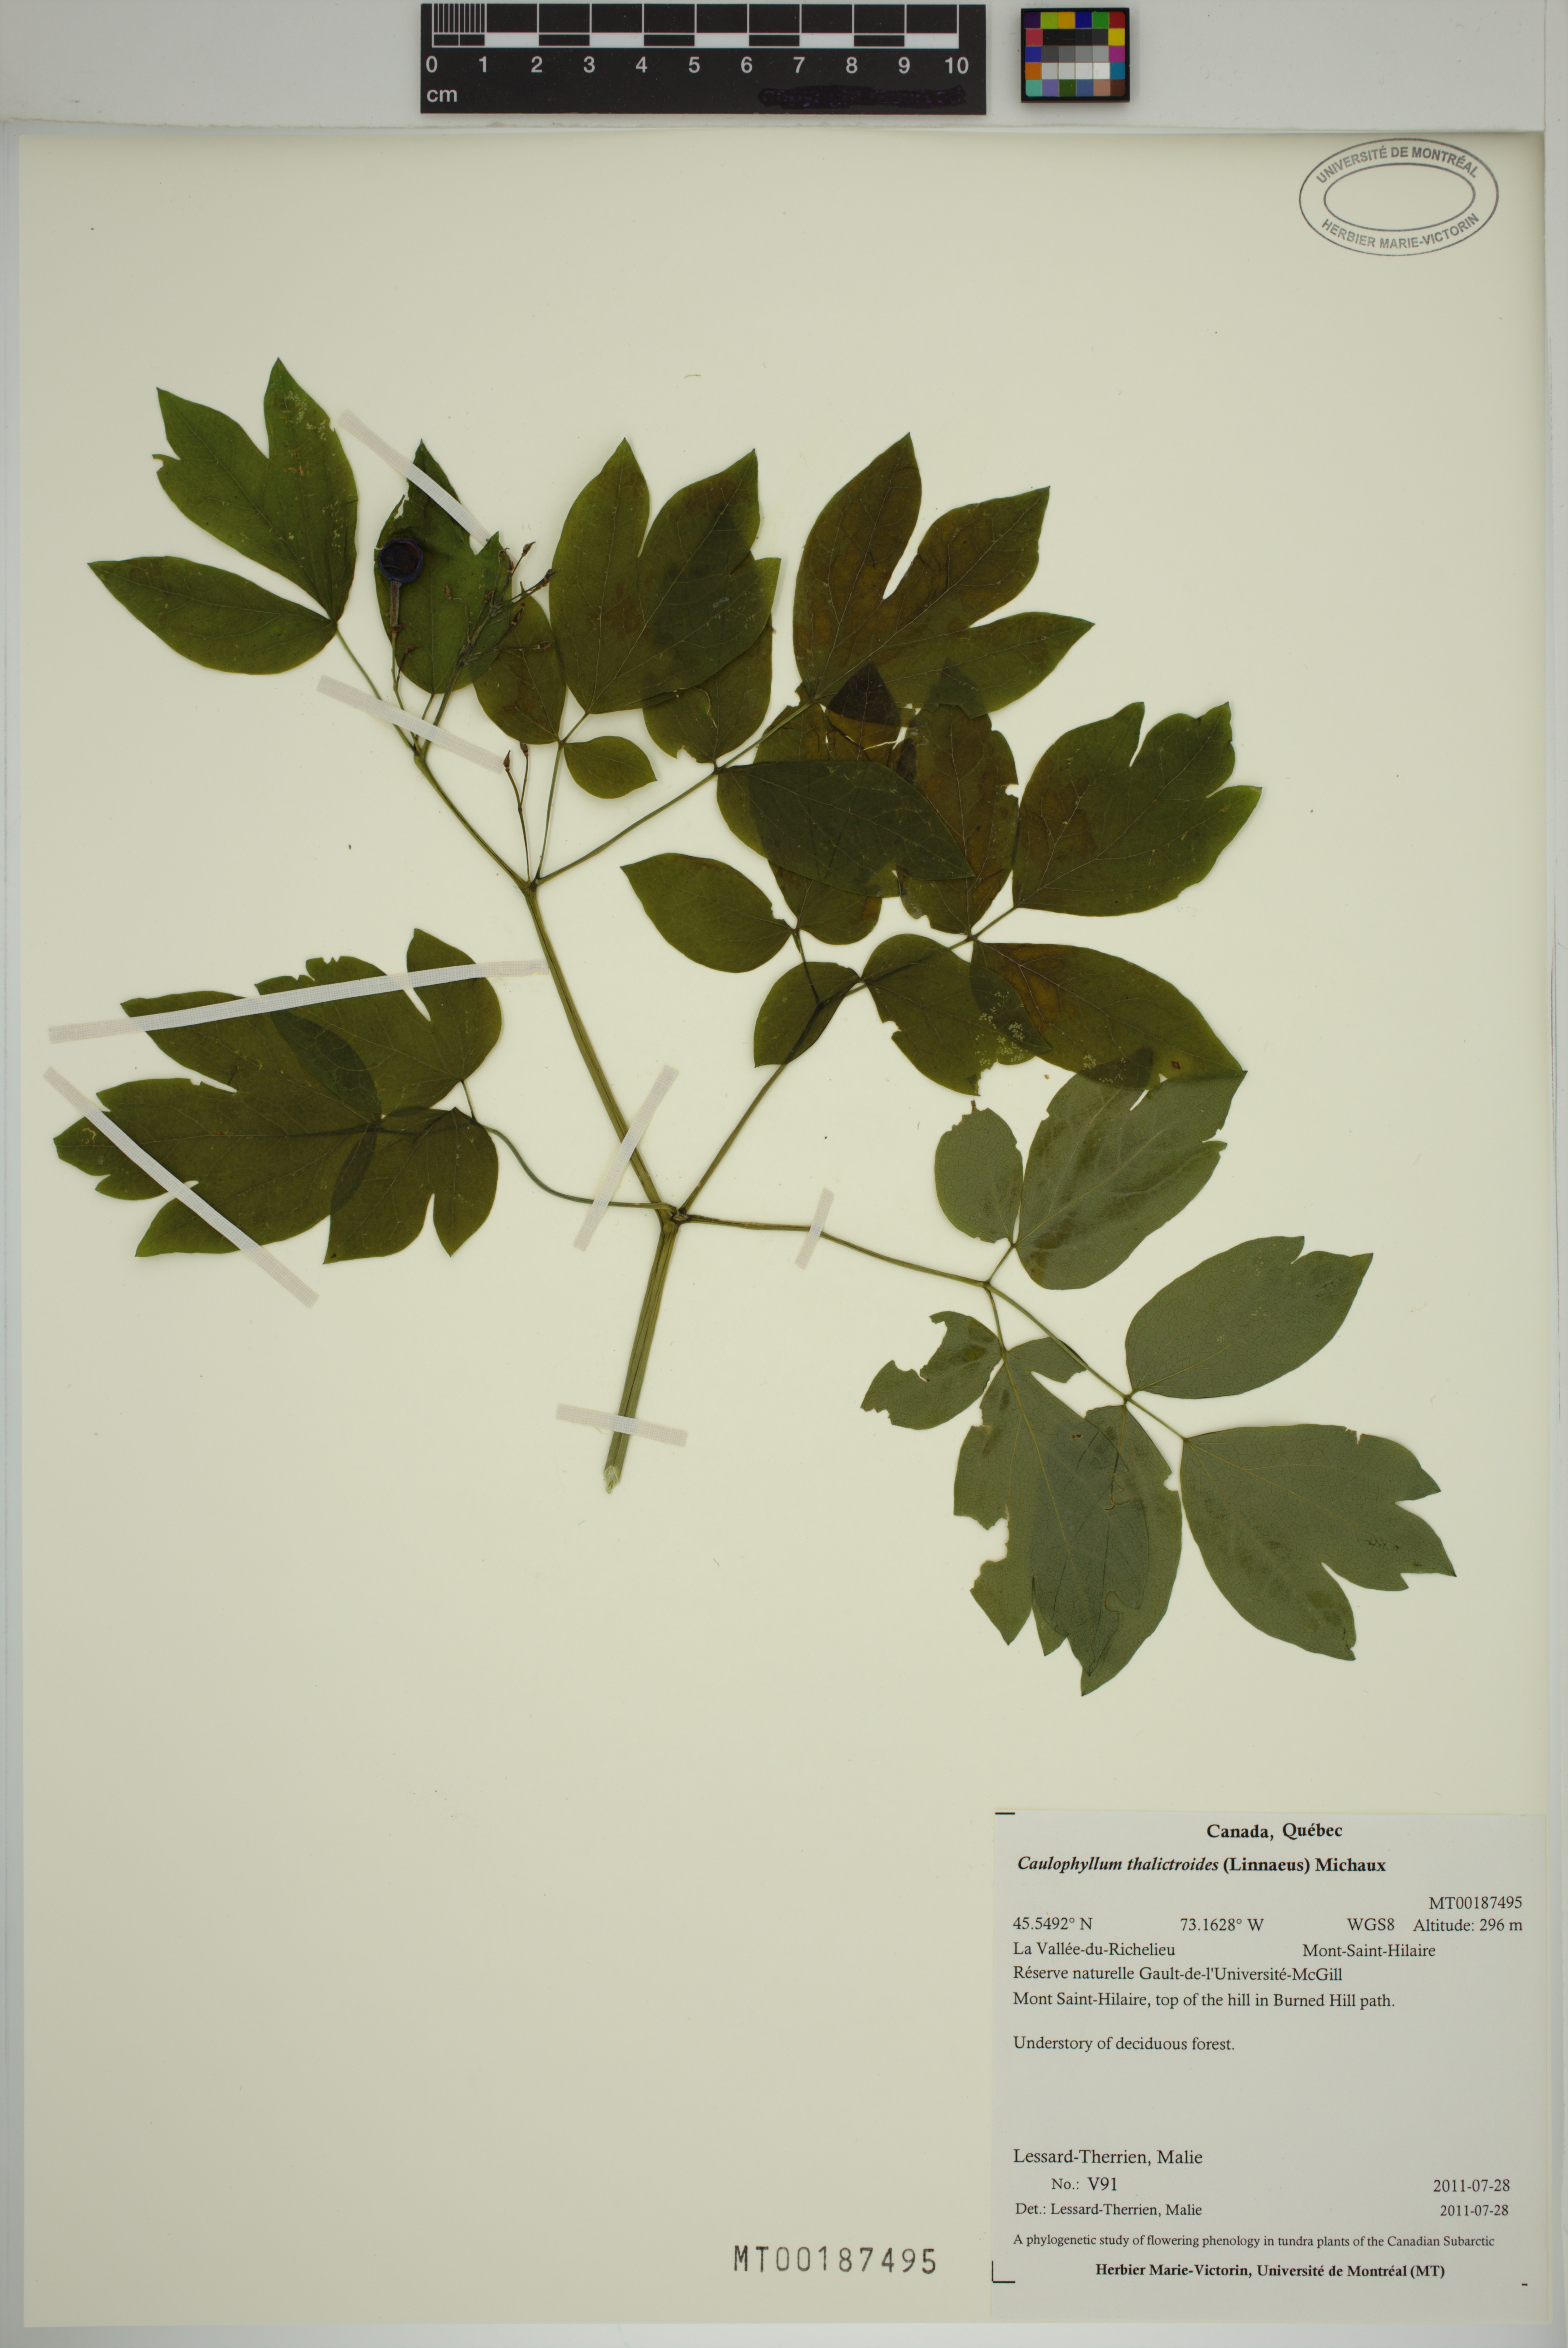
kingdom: Plantae
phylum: Tracheophyta
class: Magnoliopsida
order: Ranunculales
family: Berberidaceae
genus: Caulophyllum
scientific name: Caulophyllum thalictroides
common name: Blue cohosh
